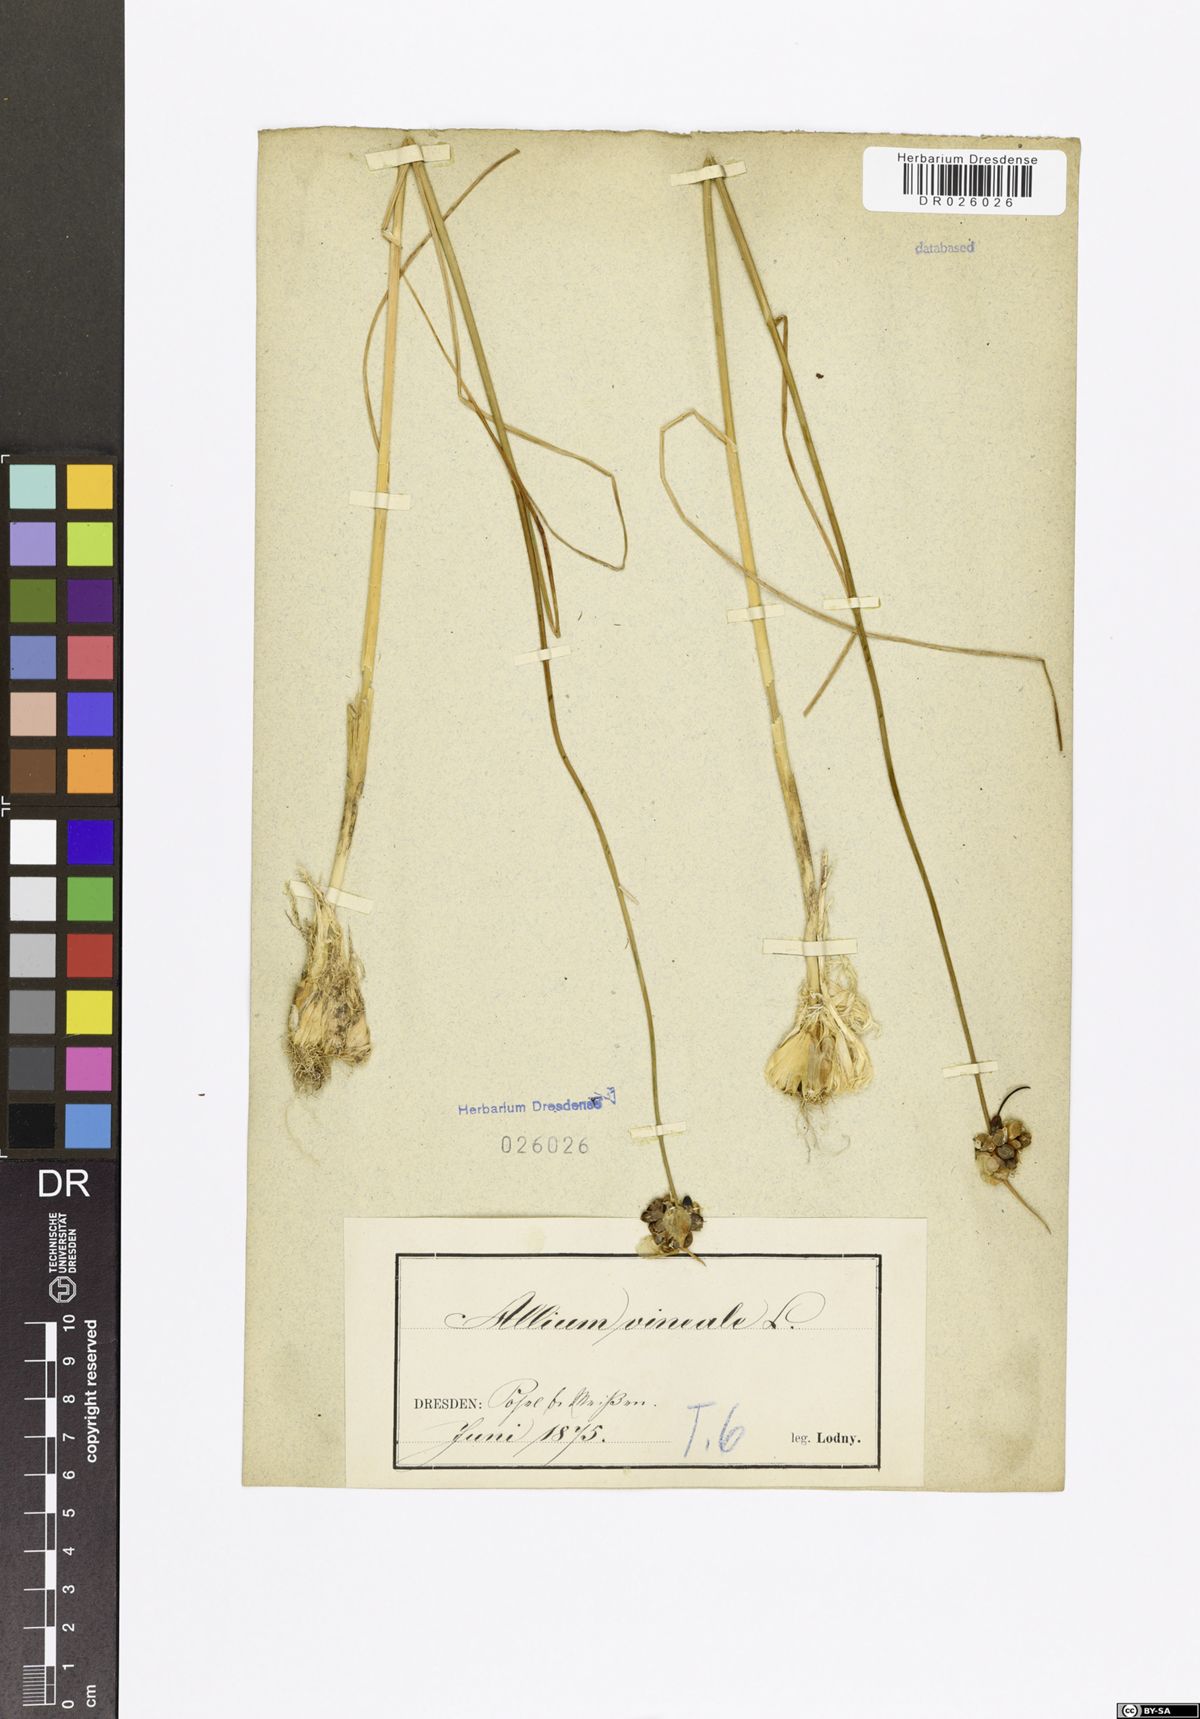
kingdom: Plantae
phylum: Tracheophyta
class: Liliopsida
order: Asparagales
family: Amaryllidaceae
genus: Allium
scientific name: Allium vineale
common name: Crow garlic
